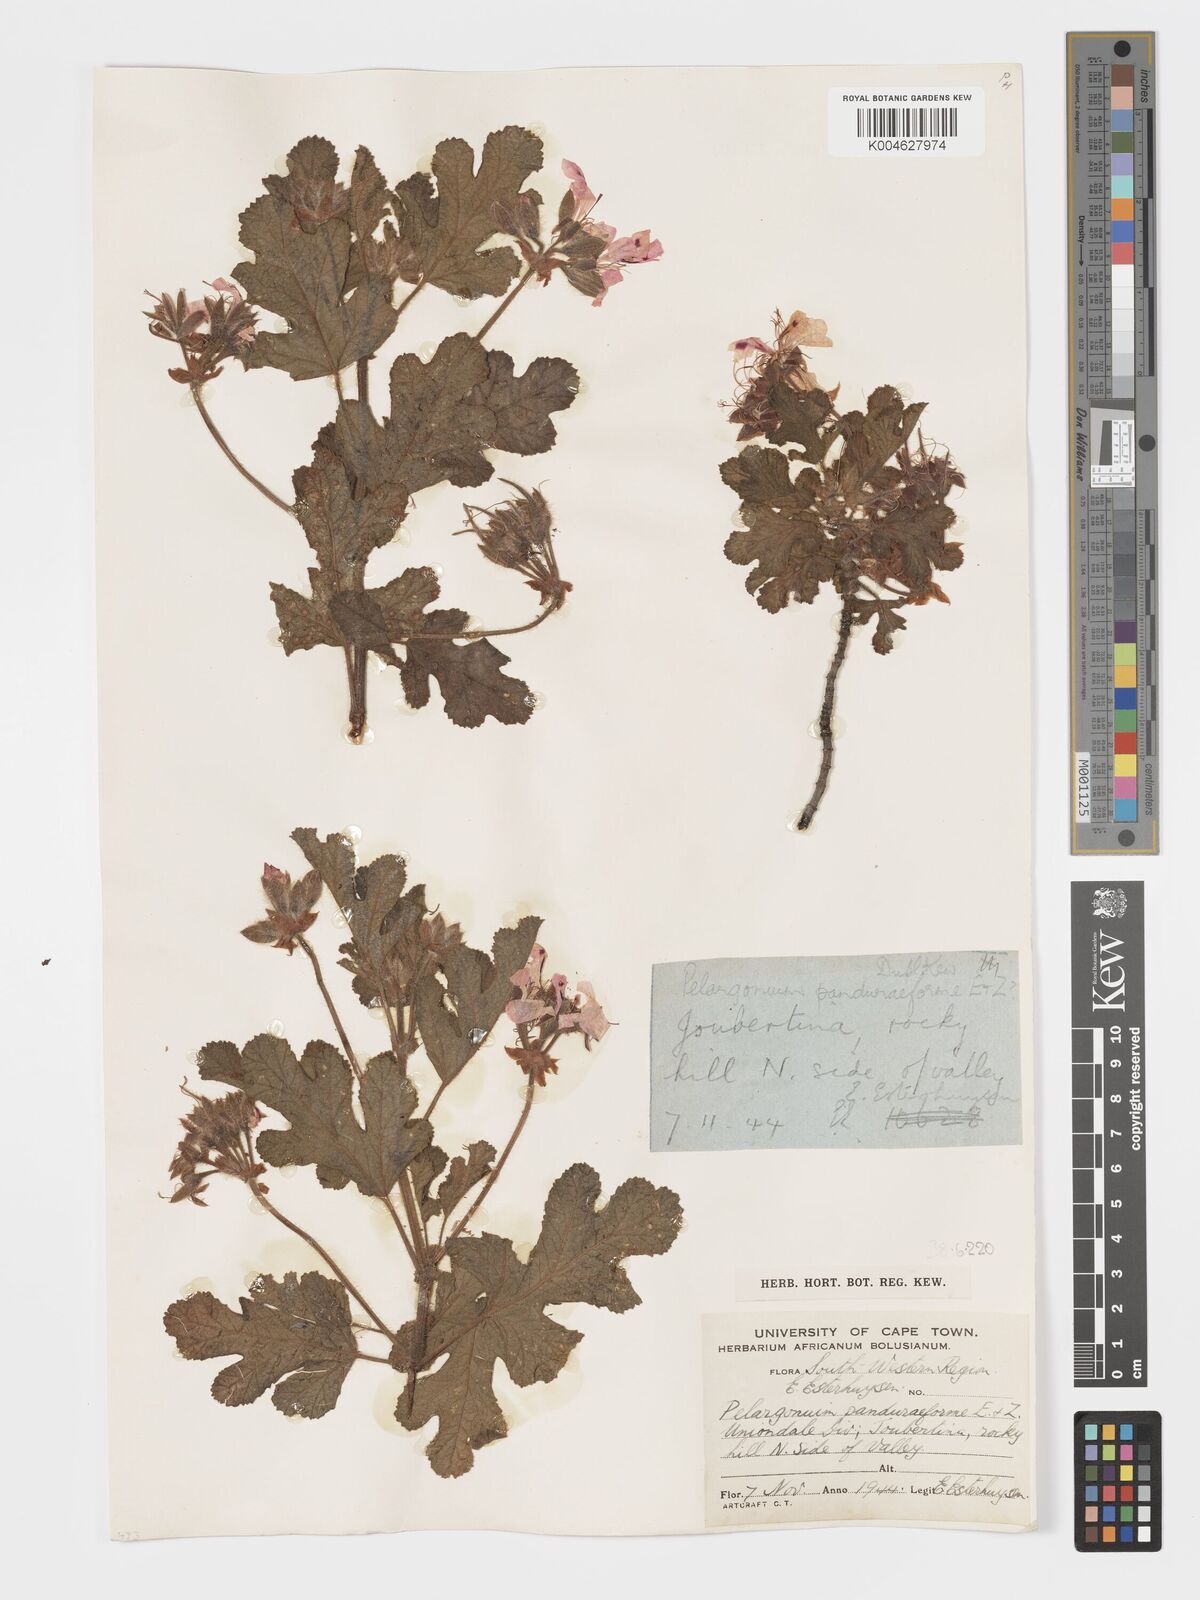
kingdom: Plantae
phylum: Tracheophyta
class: Magnoliopsida
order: Geraniales
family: Geraniaceae
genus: Pelargonium
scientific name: Pelargonium panduriforme
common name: Oakleaf garden geranium
